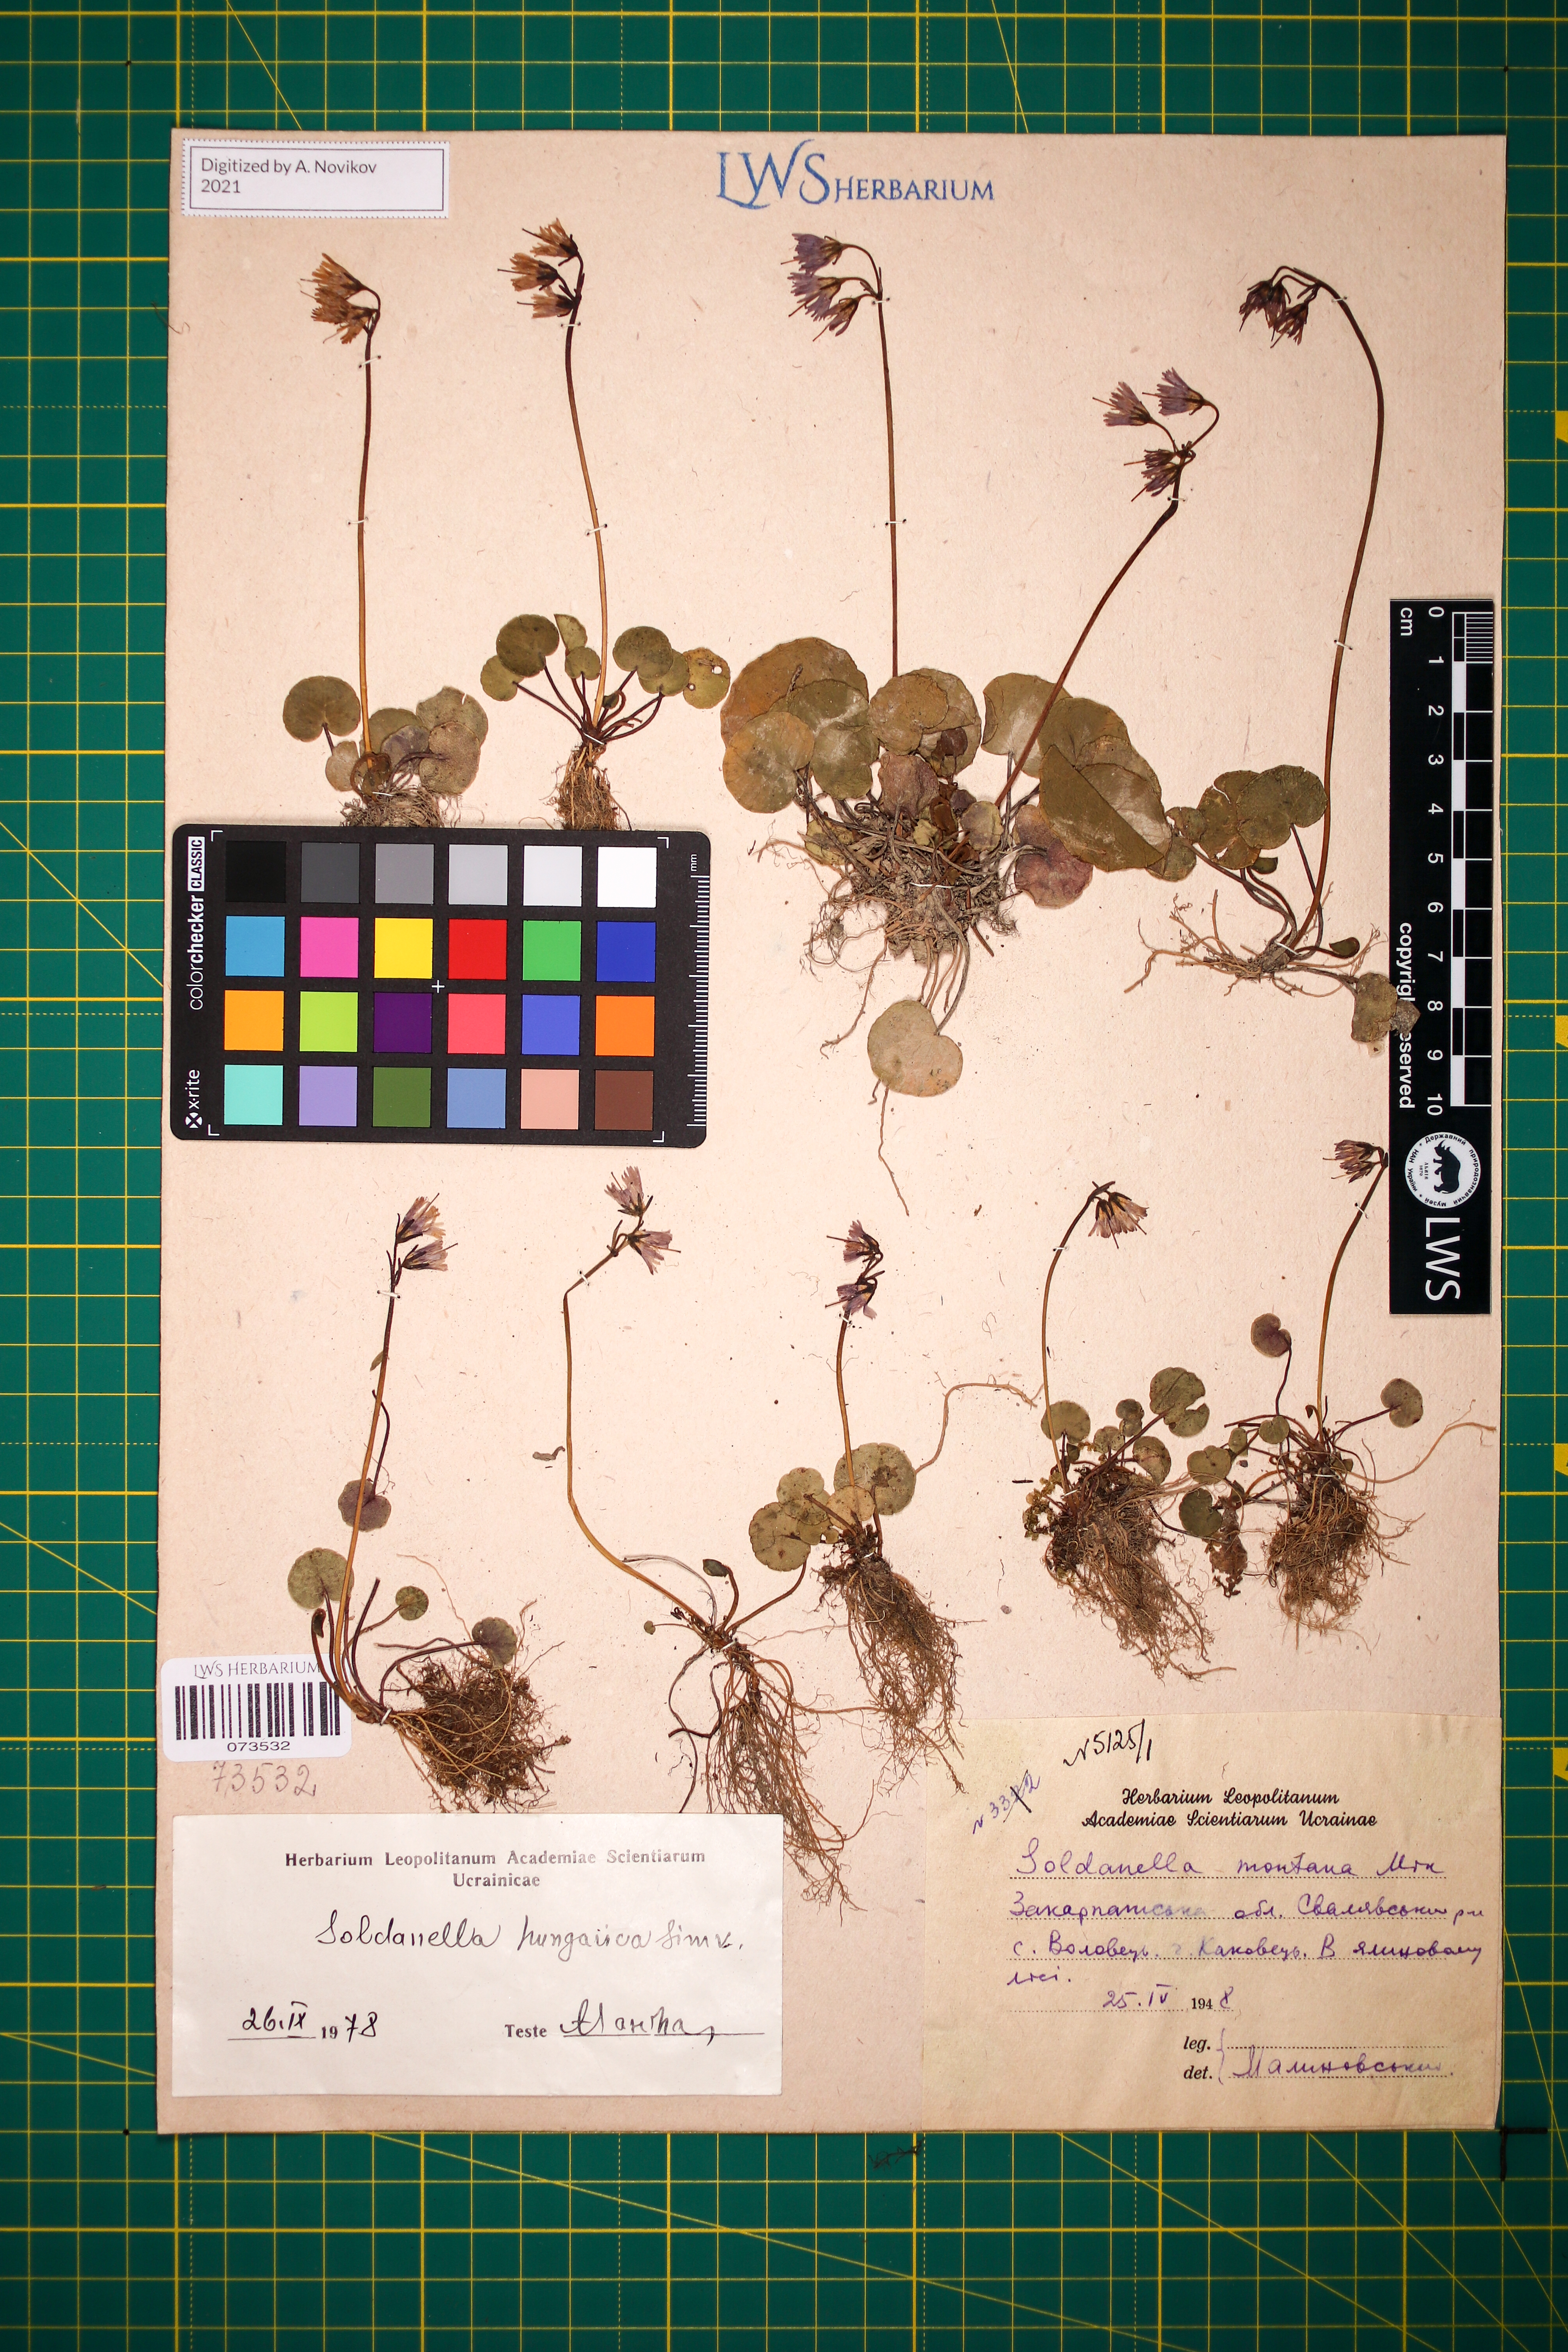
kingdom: Plantae
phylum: Tracheophyta
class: Magnoliopsida
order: Ericales
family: Primulaceae
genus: Soldanella
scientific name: Soldanella hungarica
